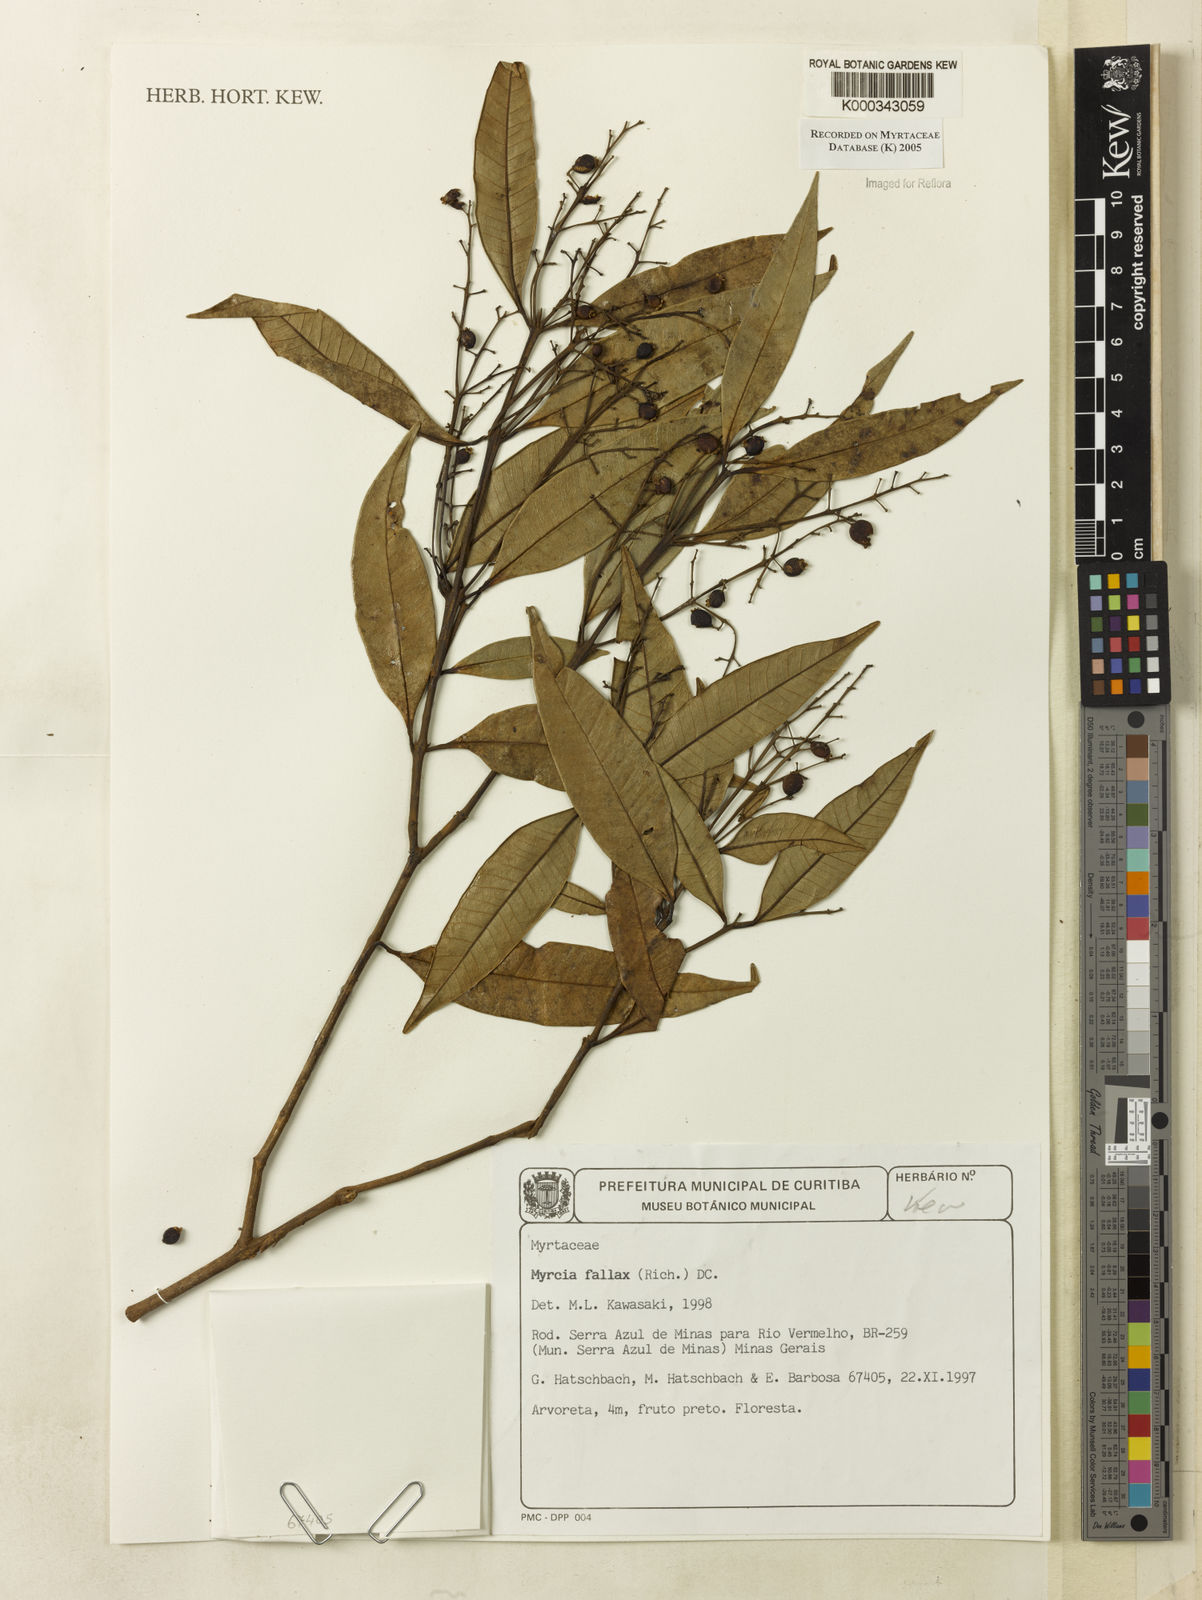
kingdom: Plantae
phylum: Tracheophyta
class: Magnoliopsida
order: Myrtales
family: Myrtaceae
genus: Myrcia
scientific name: Myrcia splendens
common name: Surinam cherry
